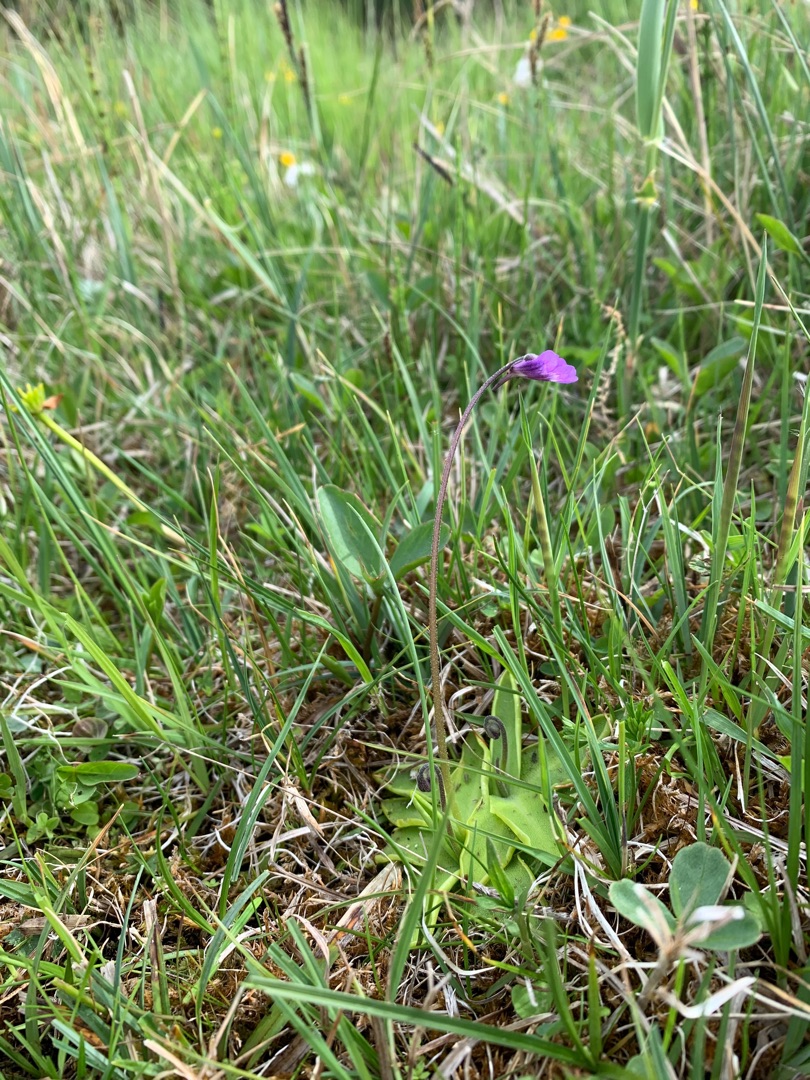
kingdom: Plantae
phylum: Tracheophyta
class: Magnoliopsida
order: Lamiales
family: Lentibulariaceae
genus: Pinguicula
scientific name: Pinguicula vulgaris
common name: Vibefedt
